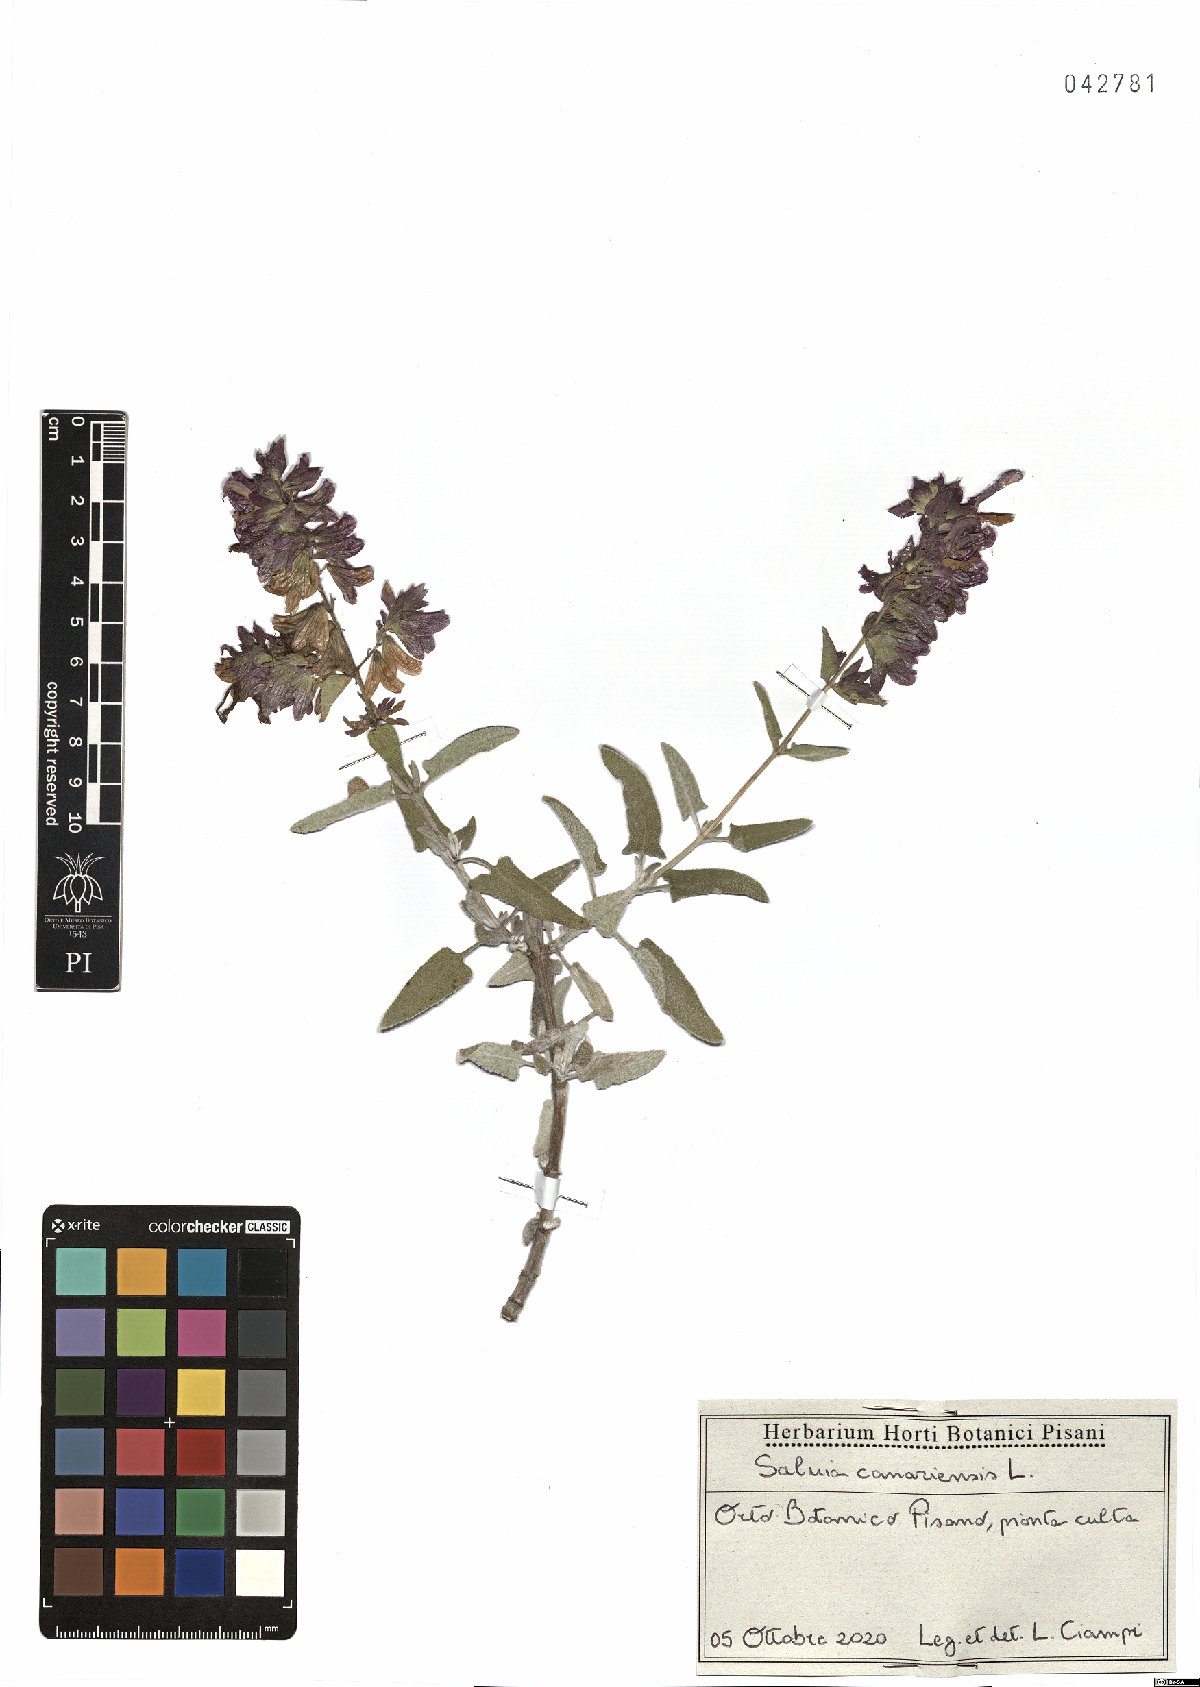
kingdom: Plantae
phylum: Tracheophyta
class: Magnoliopsida
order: Lamiales
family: Lamiaceae
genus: Salvia
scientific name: Salvia canariensis
